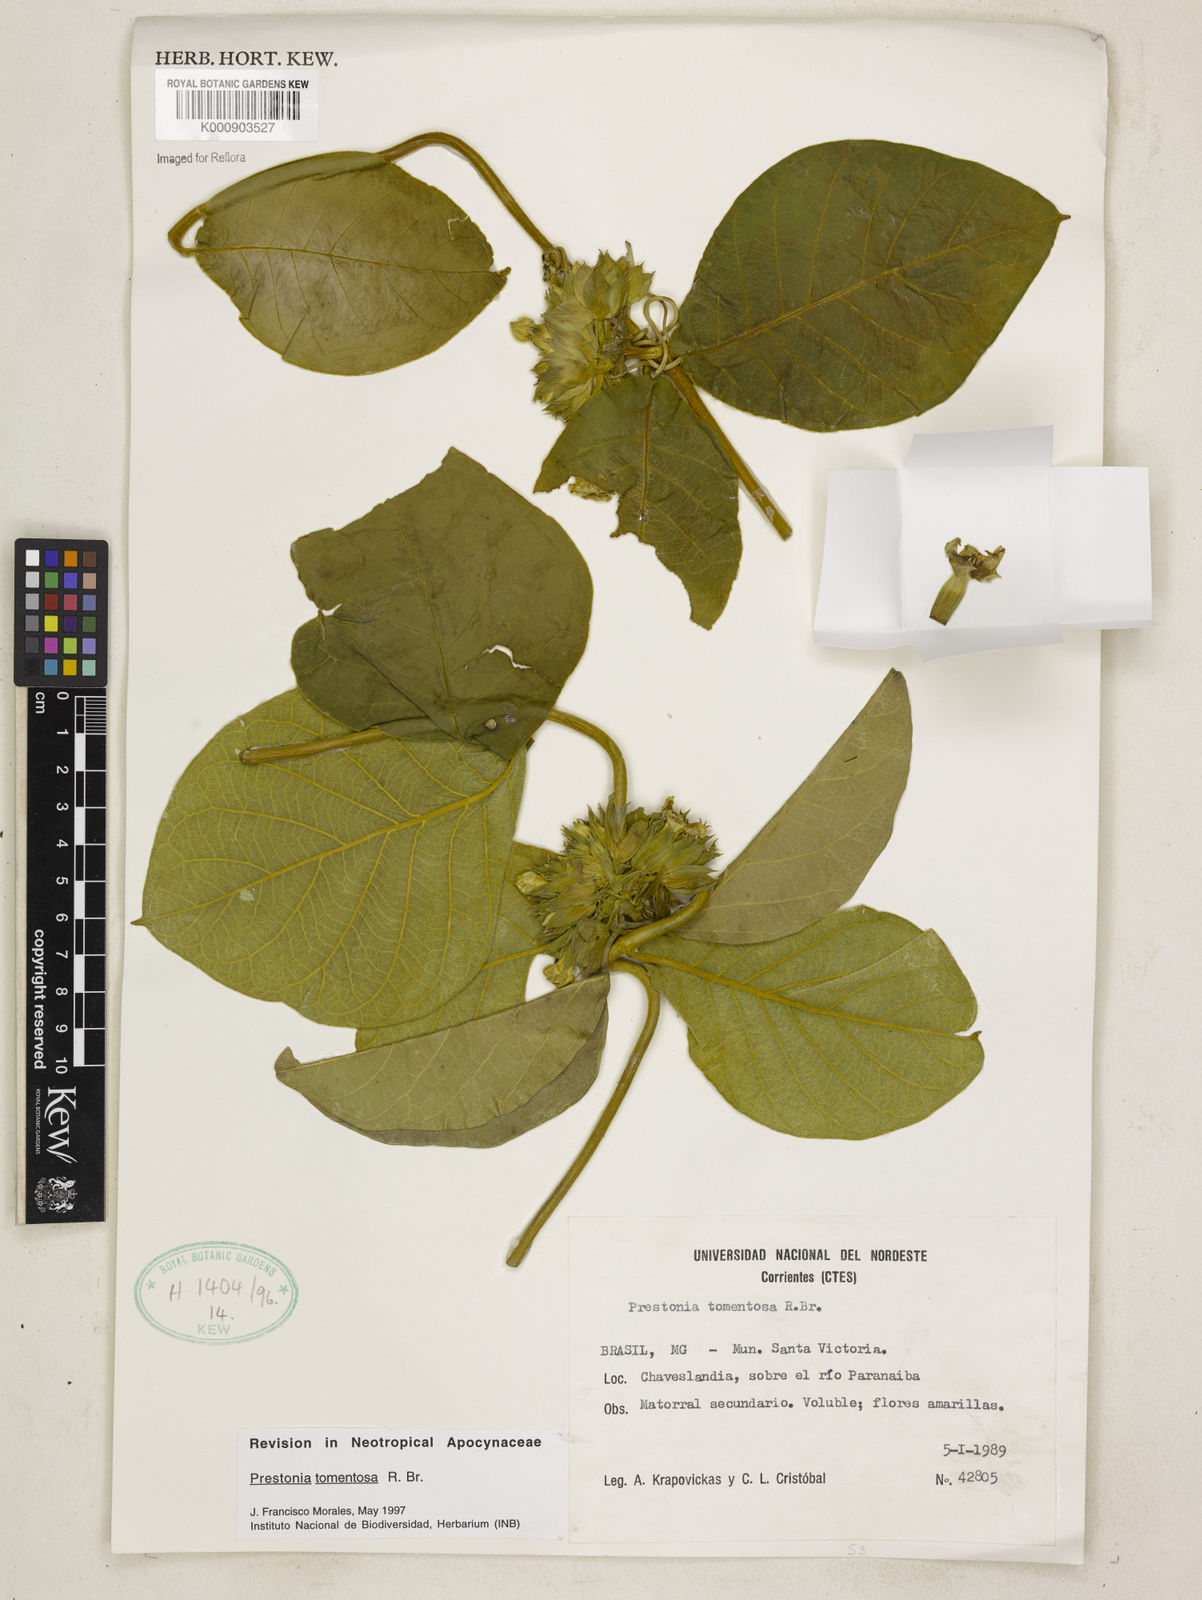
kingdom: Plantae
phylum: Tracheophyta
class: Magnoliopsida
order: Gentianales
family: Apocynaceae
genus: Prestonia
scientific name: Prestonia tomentosa
